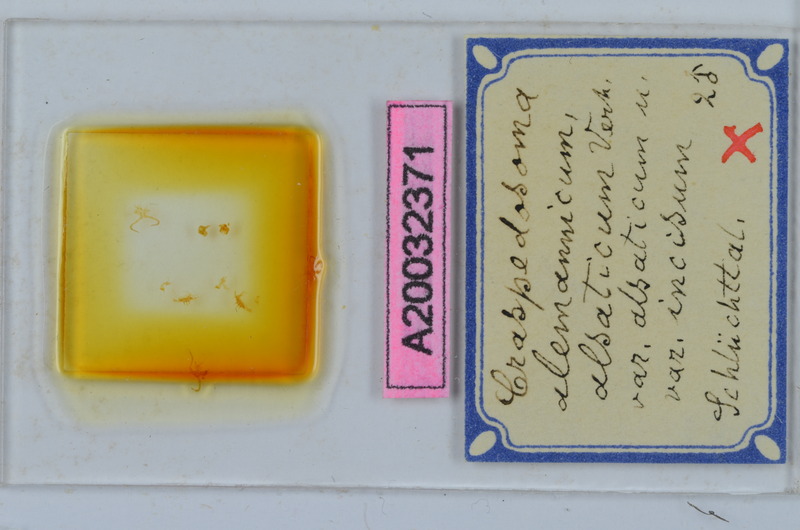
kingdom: Animalia
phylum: Arthropoda
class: Diplopoda
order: Chordeumatida
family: Craspedosomatidae
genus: Craspedosoma
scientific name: Craspedosoma rawlinsii
